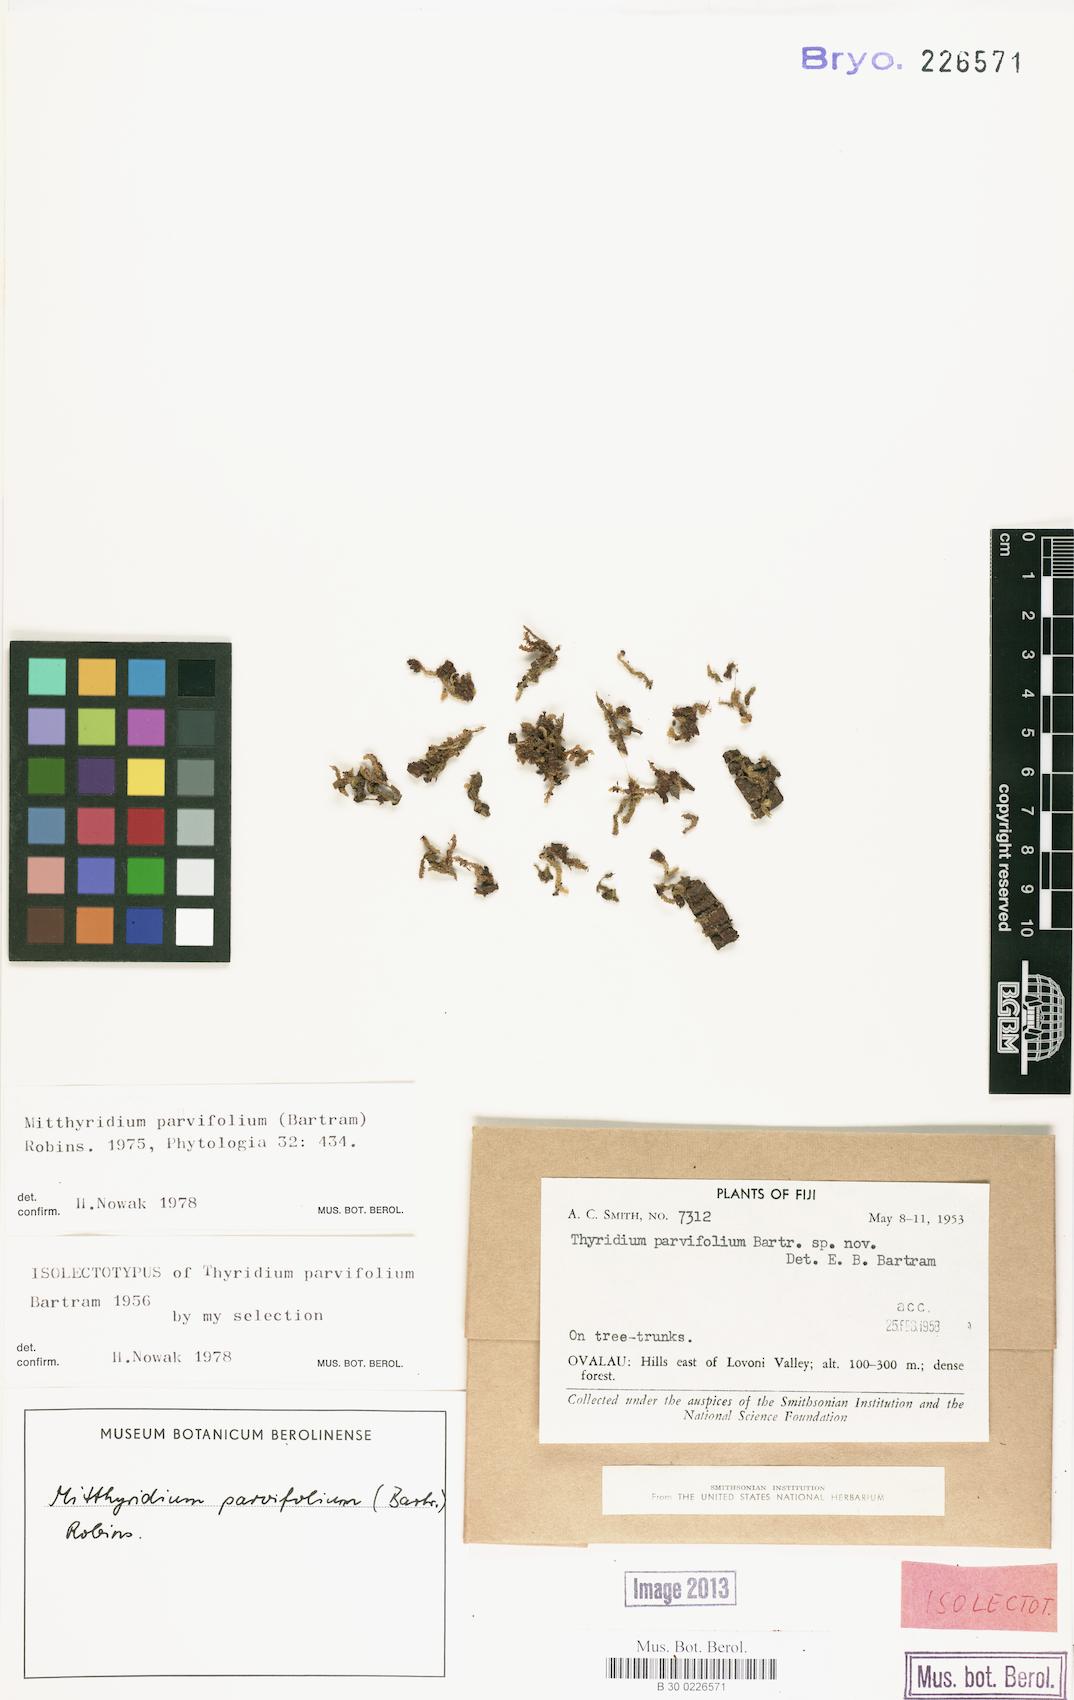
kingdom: Plantae
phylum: Bryophyta
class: Bryopsida
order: Dicranales
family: Calymperaceae
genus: Mitthyridium
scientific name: Mitthyridium repens
